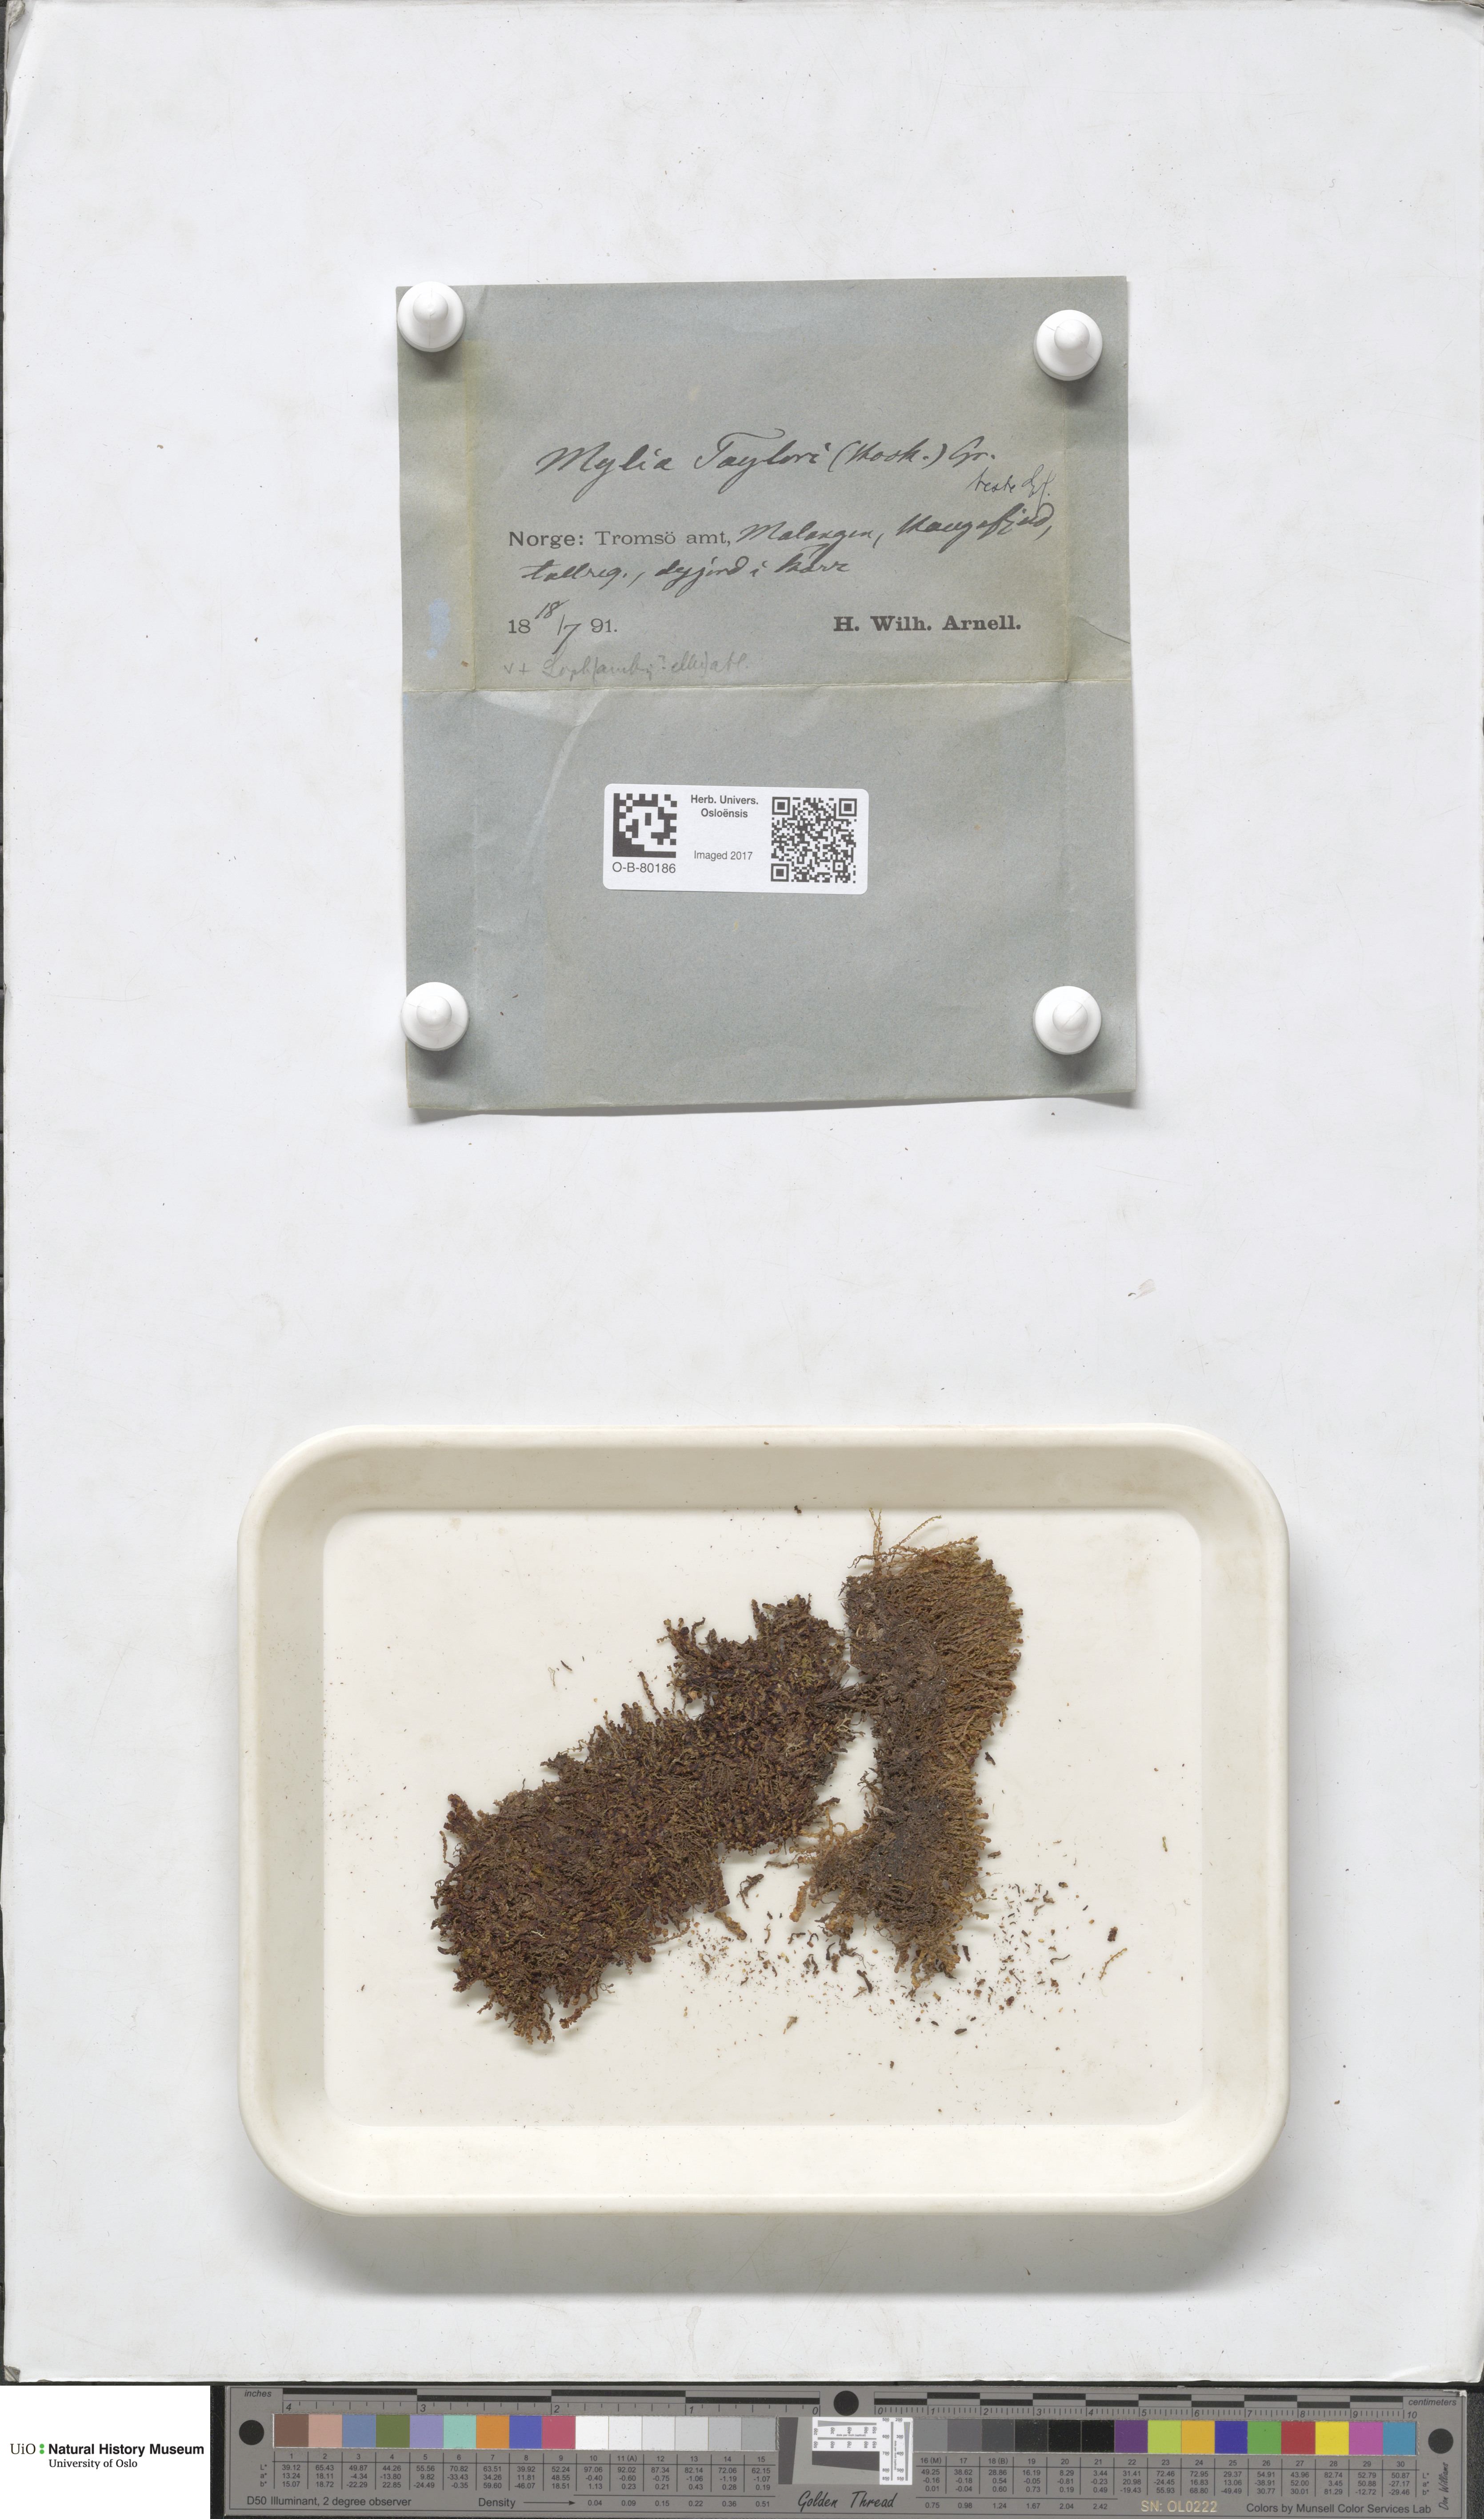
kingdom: Plantae
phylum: Marchantiophyta
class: Jungermanniopsida
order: Jungermanniales
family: Myliaceae
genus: Mylia
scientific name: Mylia taylorii
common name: Taylor s flapwort
